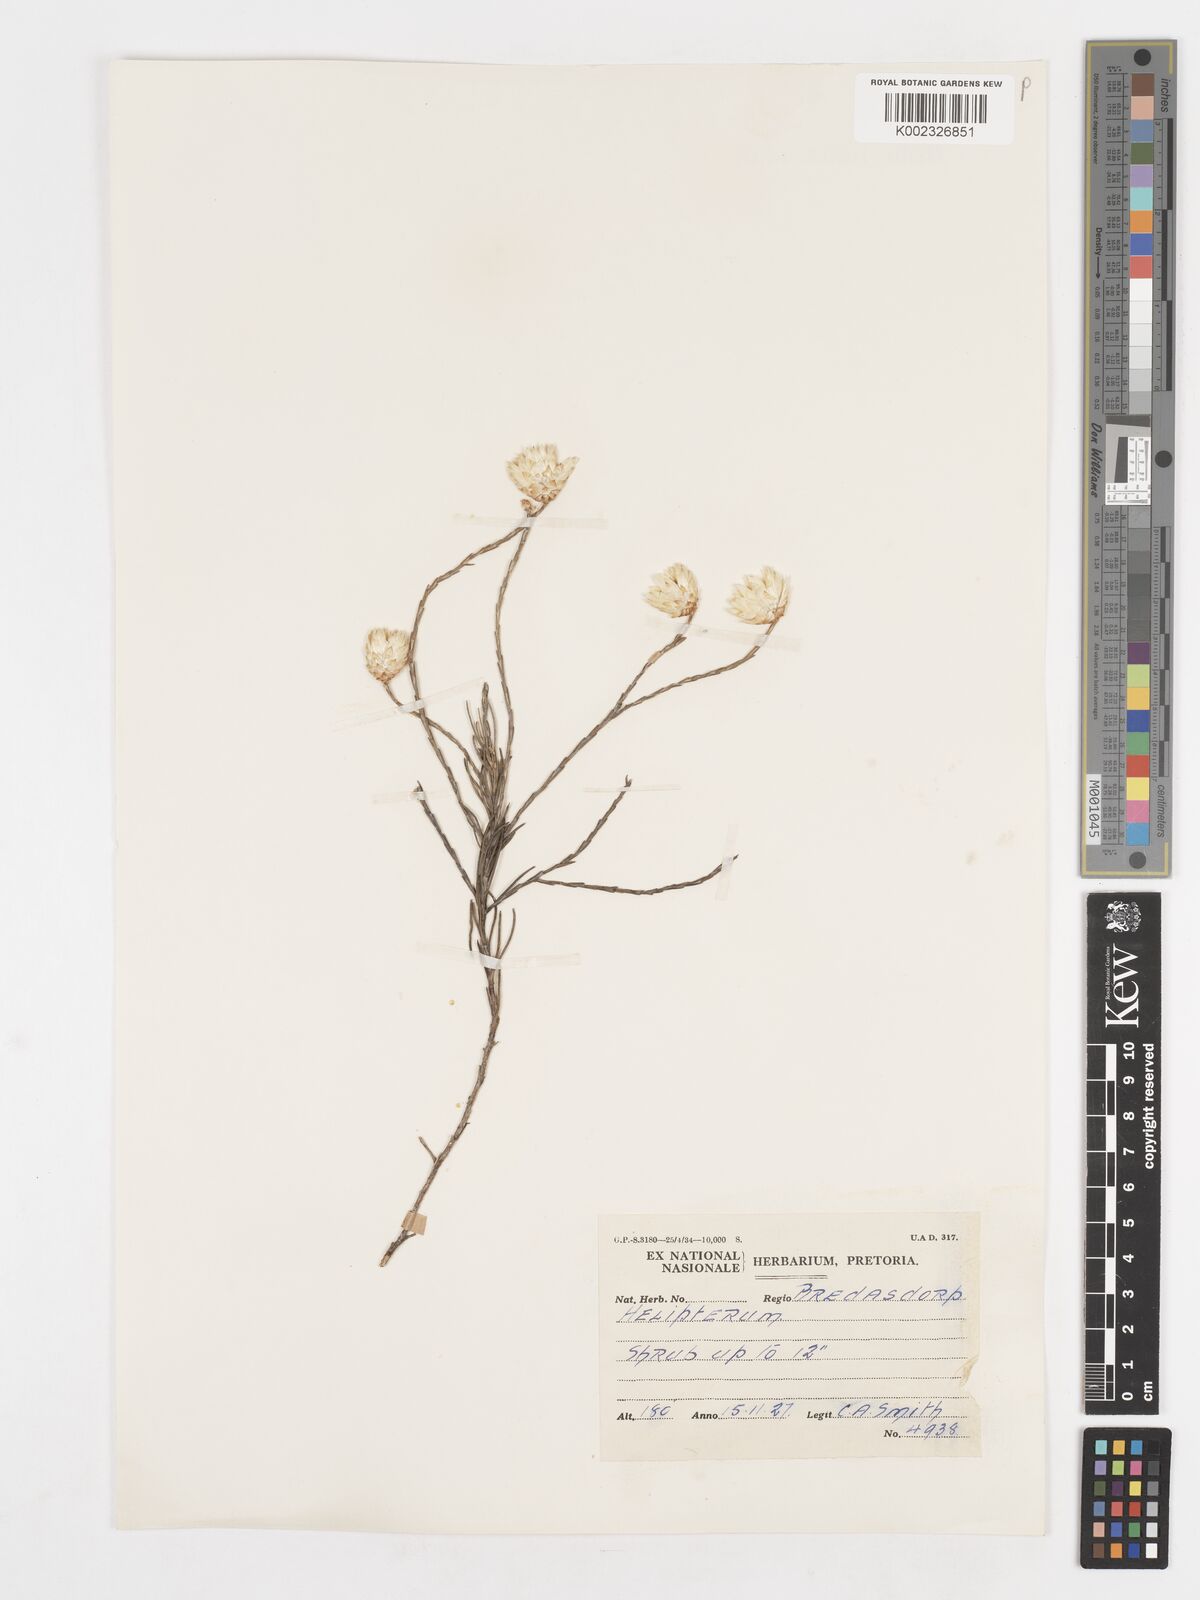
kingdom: Plantae
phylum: Tracheophyta
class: Magnoliopsida
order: Asterales
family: Asteraceae
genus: Syncarpha
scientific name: Syncarpha
